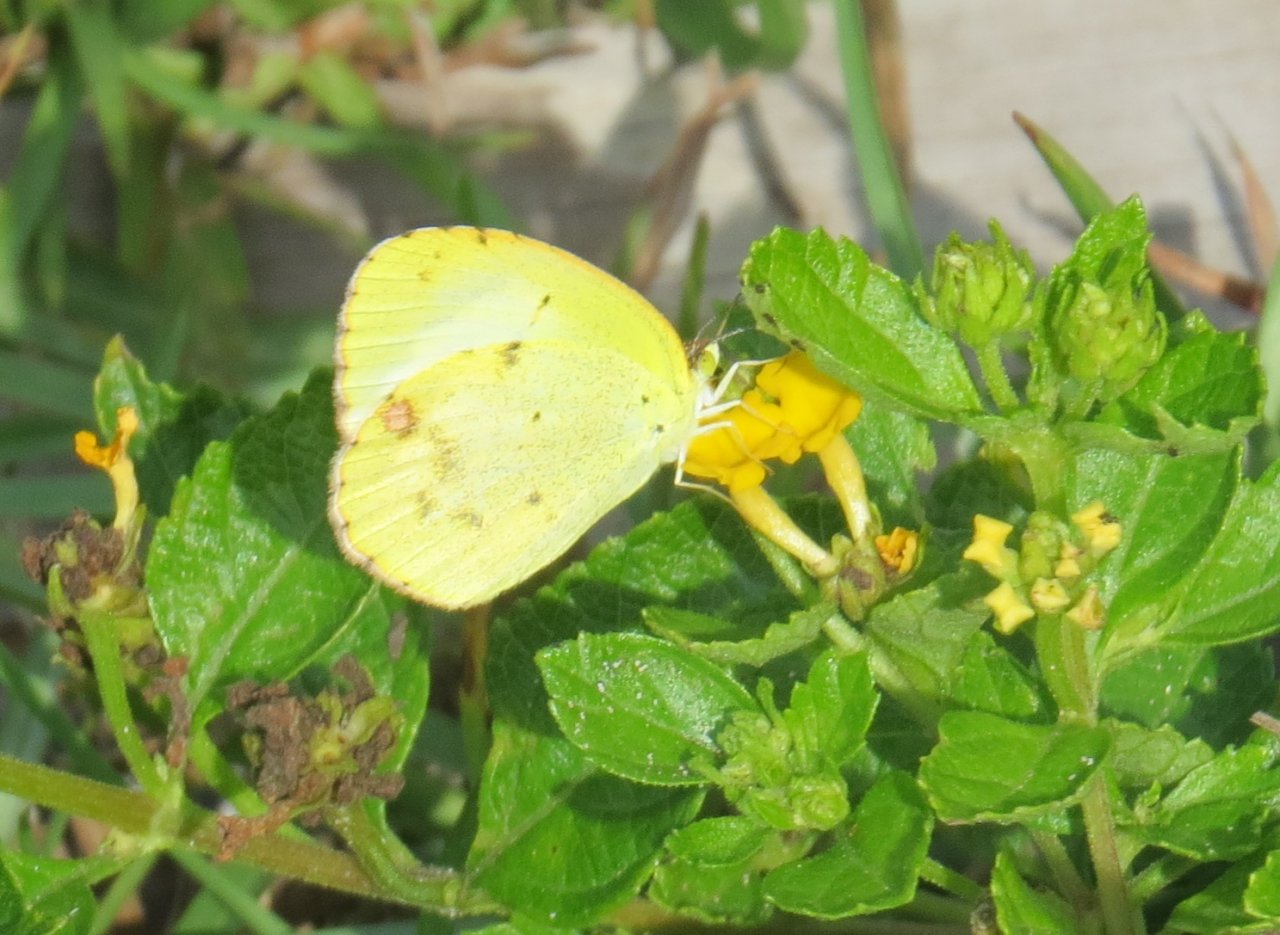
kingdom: Animalia
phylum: Arthropoda
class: Insecta
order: Lepidoptera
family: Pieridae
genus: Pyrisitia
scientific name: Pyrisitia lisa
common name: Little Yellow
